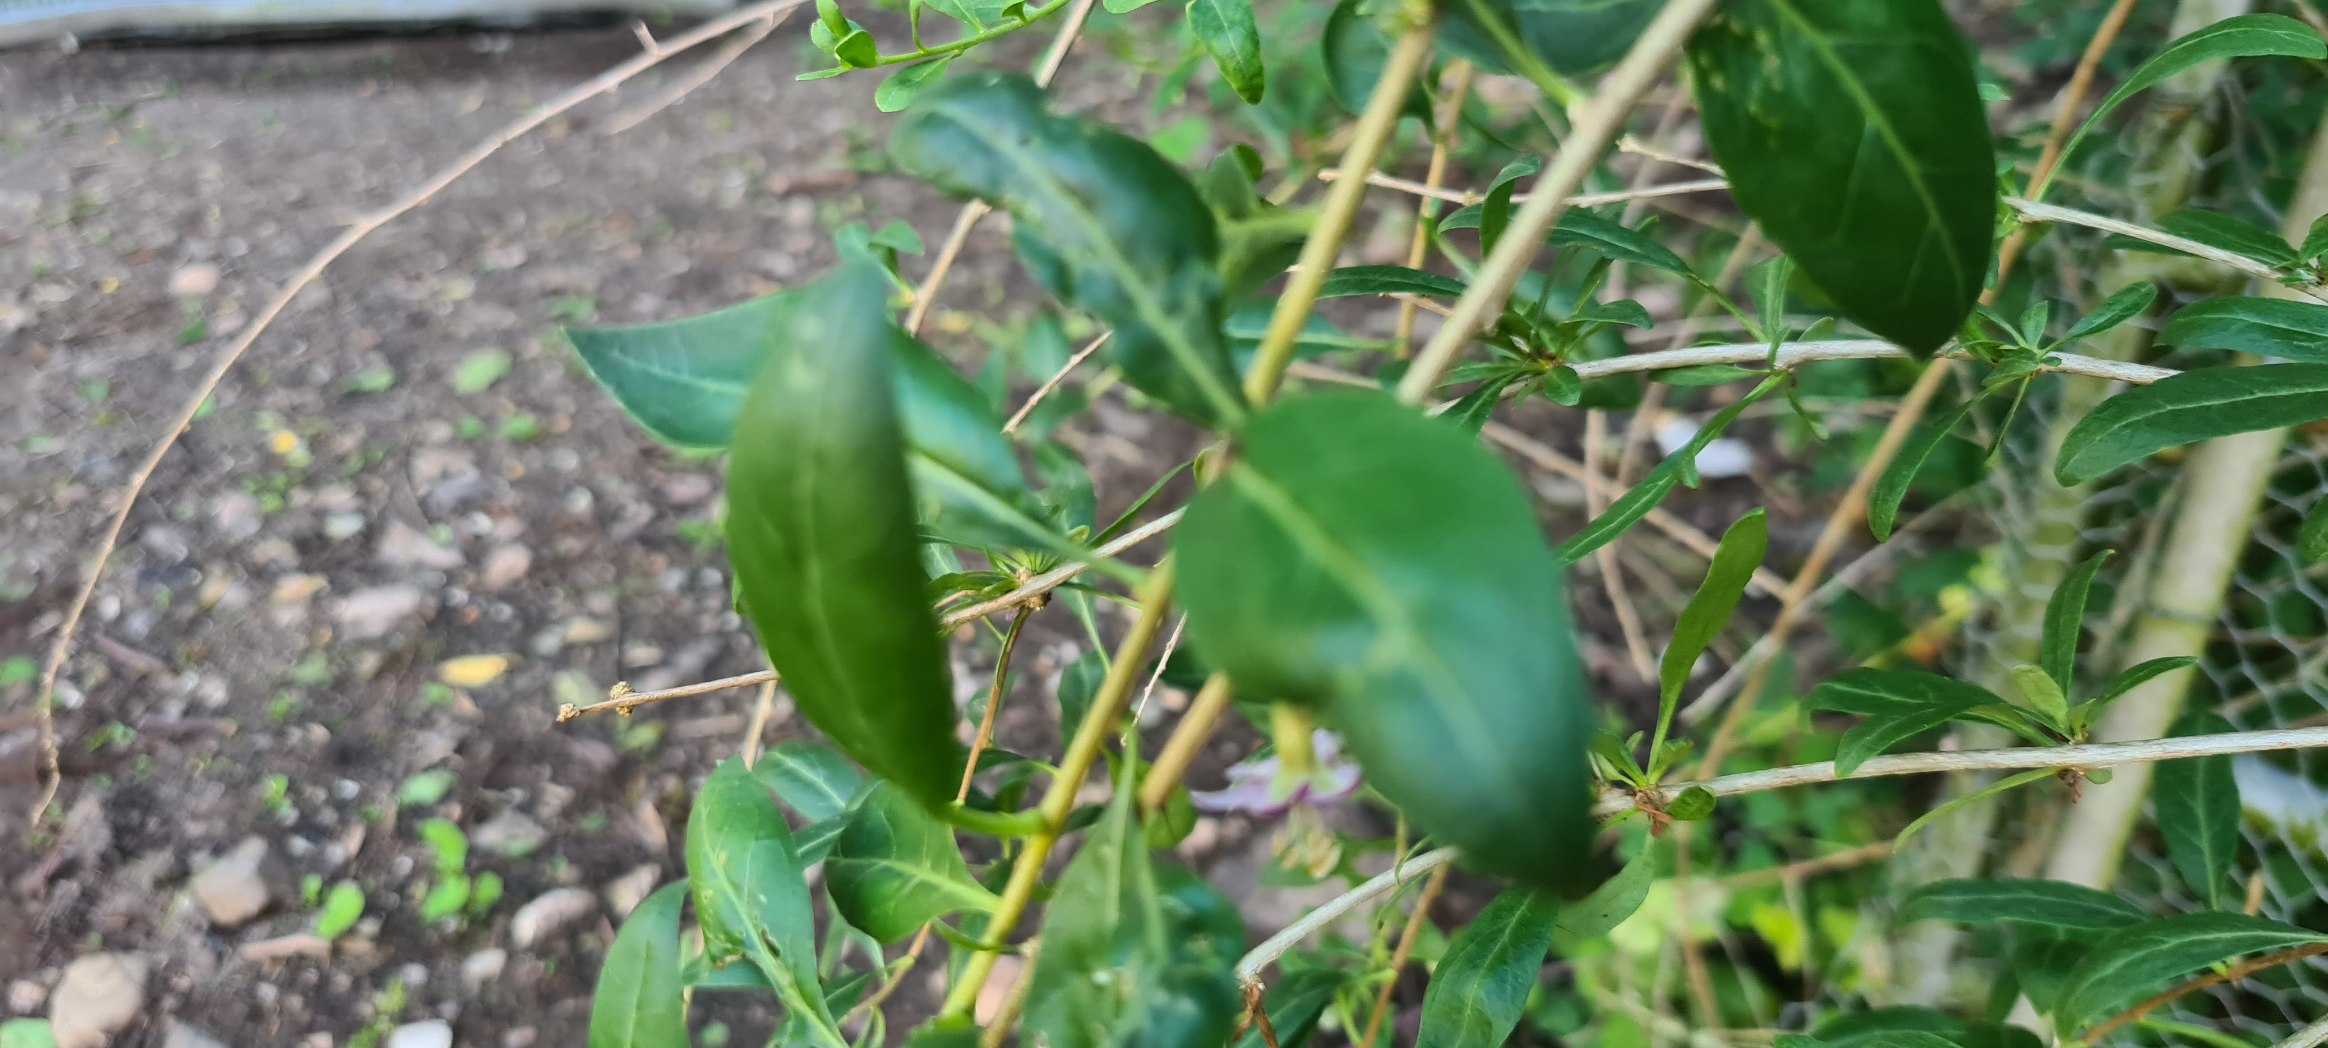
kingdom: Plantae
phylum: Tracheophyta
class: Magnoliopsida
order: Solanales
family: Solanaceae
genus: Lycium
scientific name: Lycium chinense
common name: Bredbladet bukketorn
